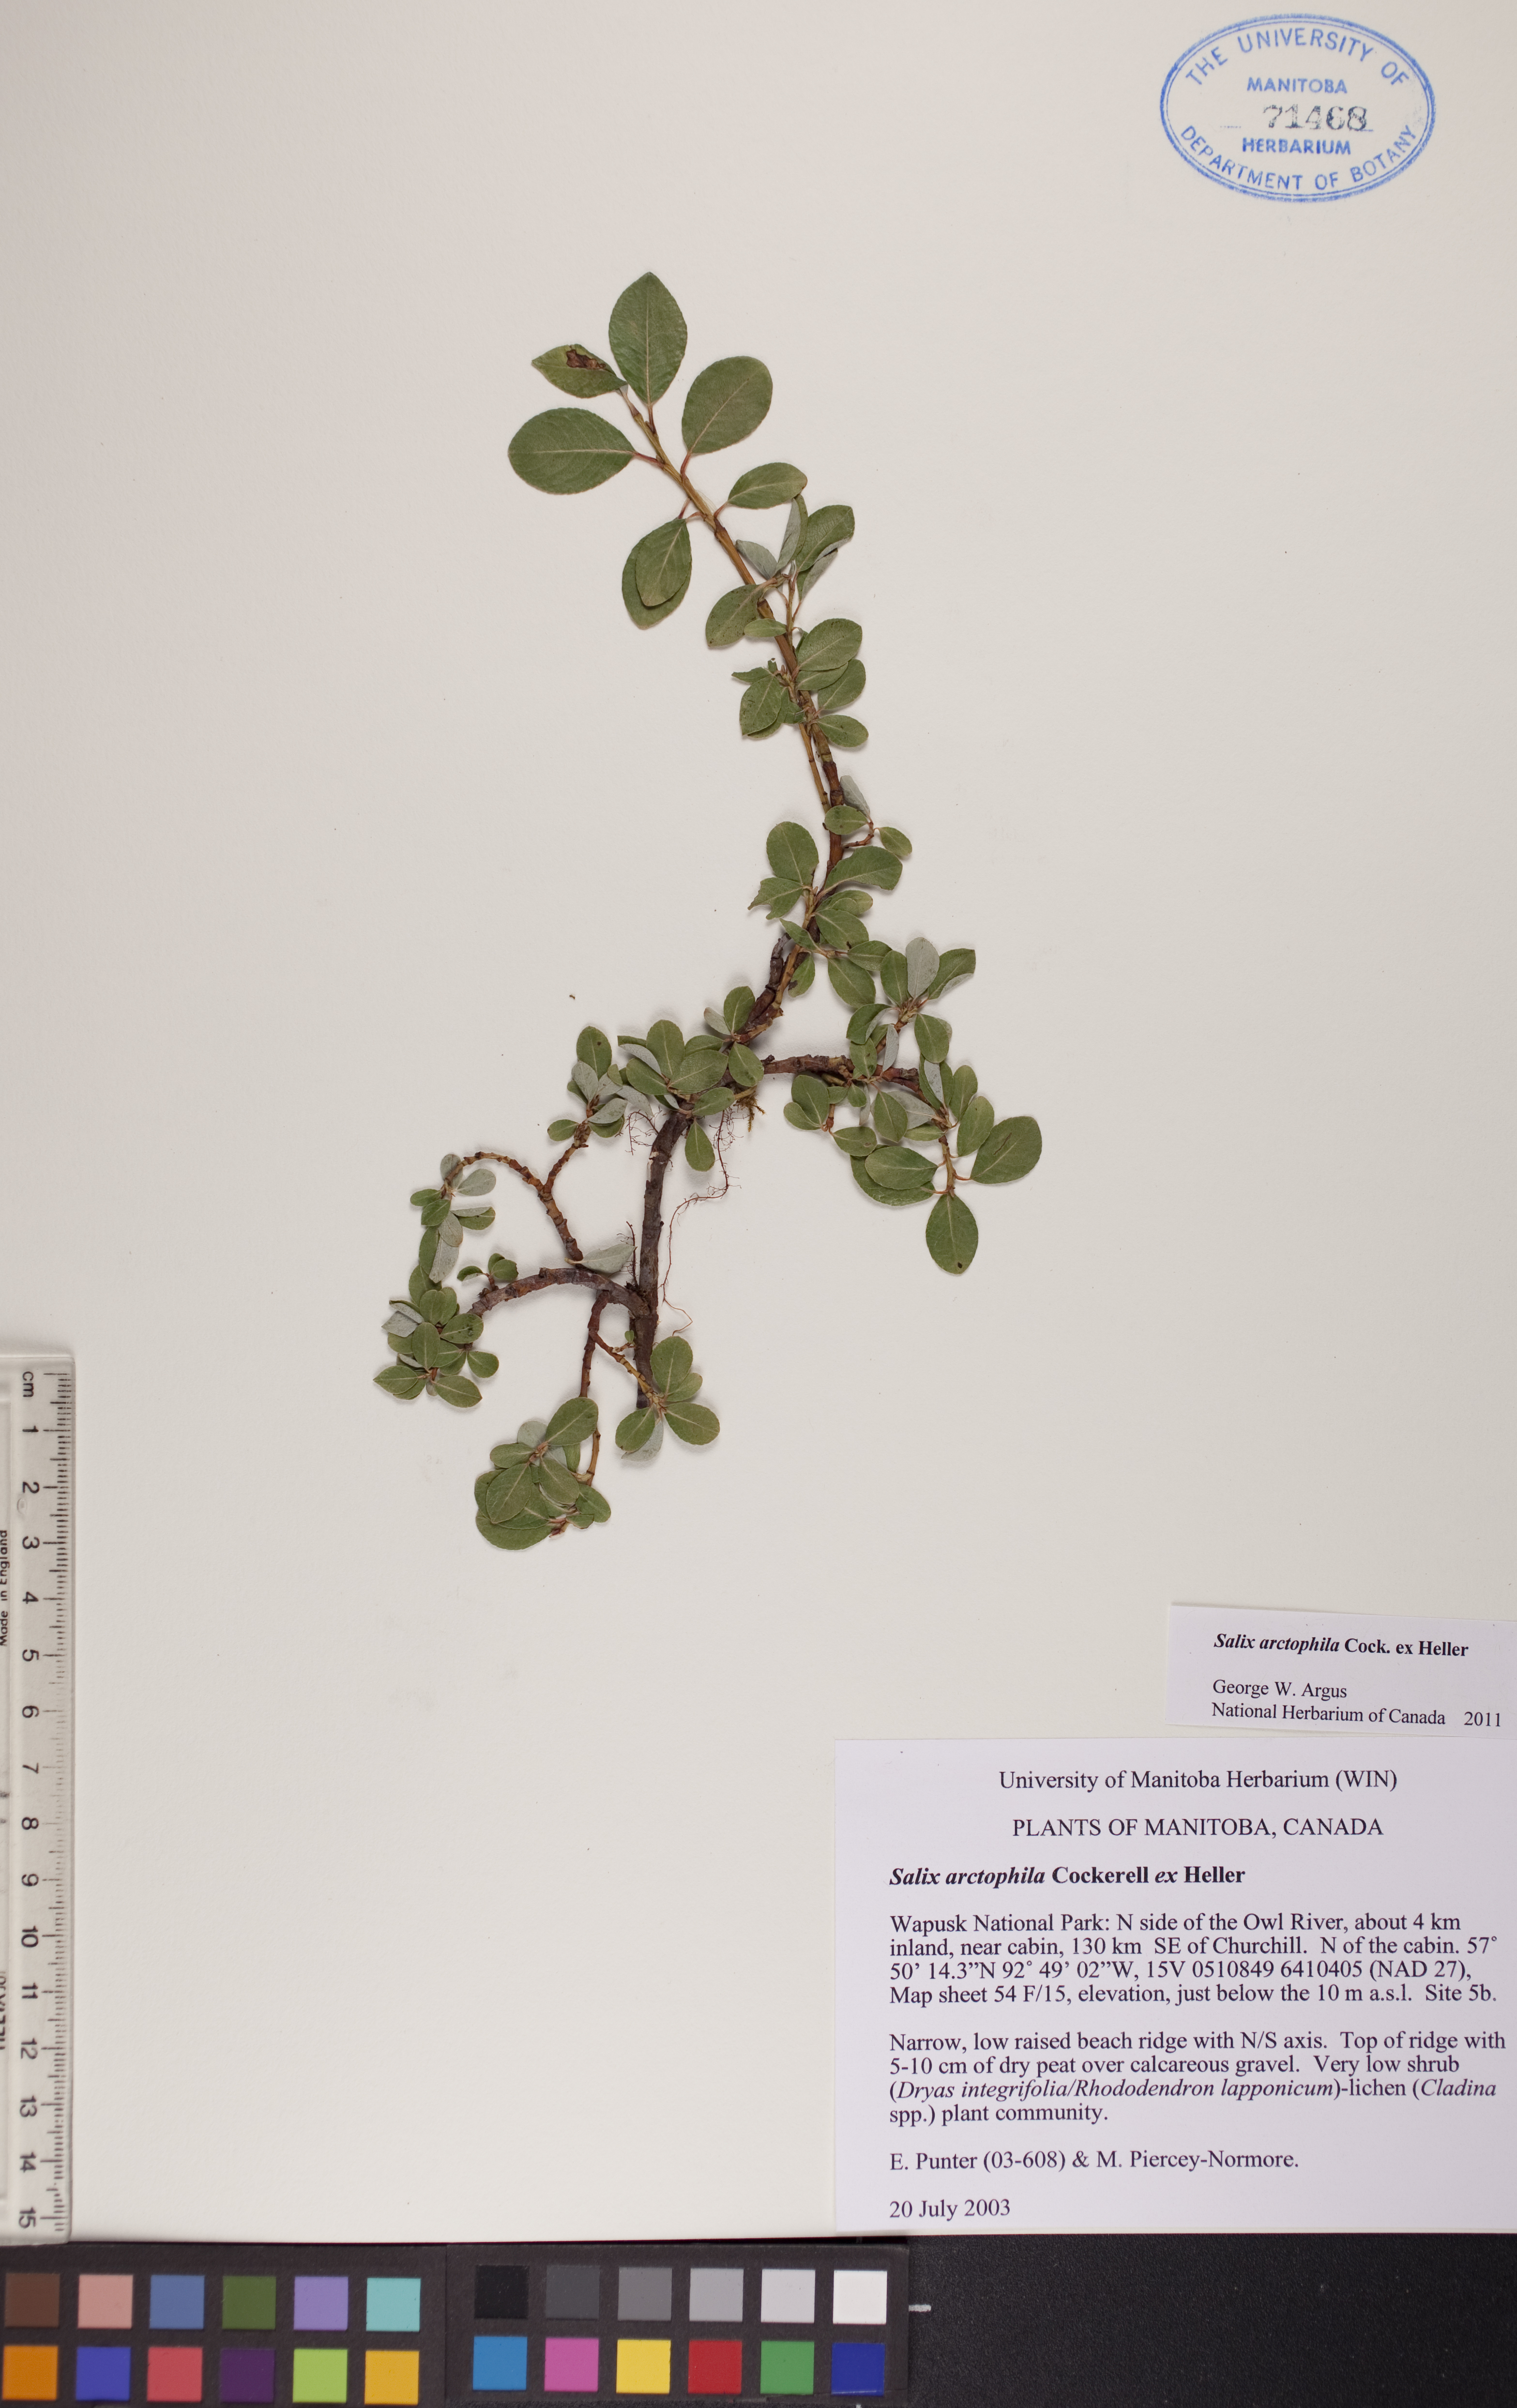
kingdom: Plantae
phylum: Tracheophyta
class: Magnoliopsida
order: Malpighiales
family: Salicaceae
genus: Salix
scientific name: Salix arctophila
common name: Greenland willow
